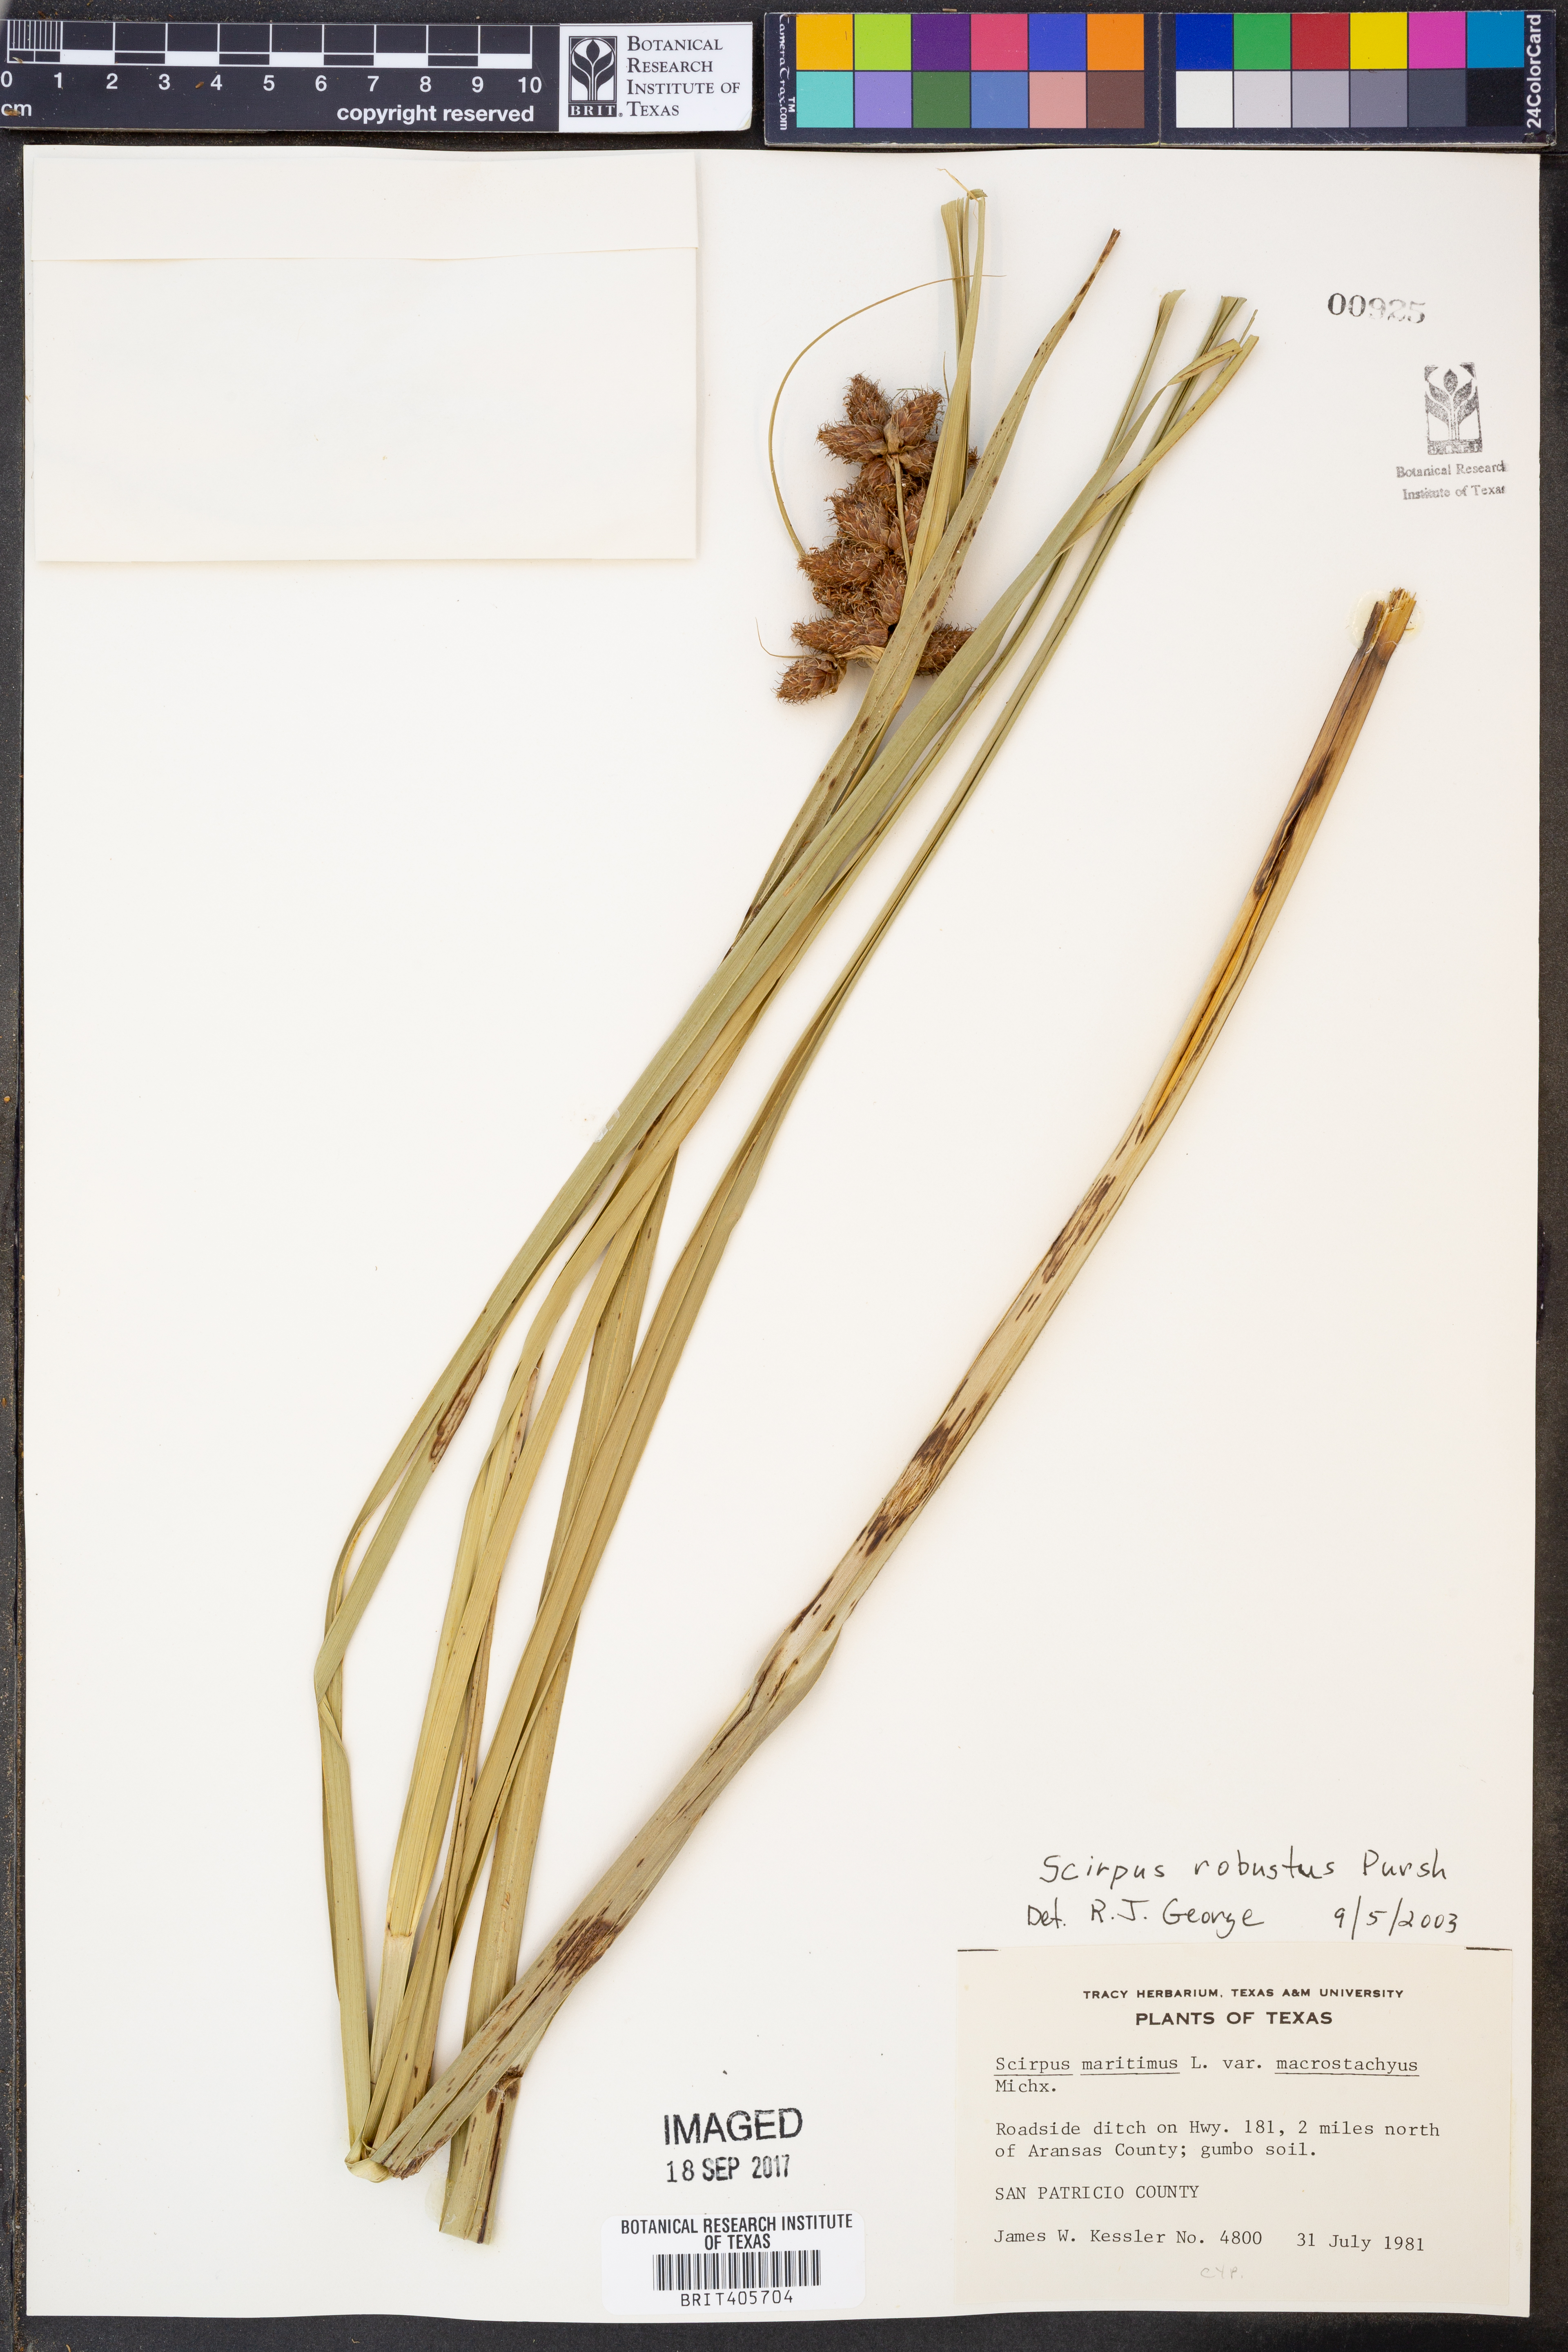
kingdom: Plantae
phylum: Tracheophyta
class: Liliopsida
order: Poales
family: Cyperaceae
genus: Bolboschoenus
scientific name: Bolboschoenus robustus
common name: Seacoast bulrush
